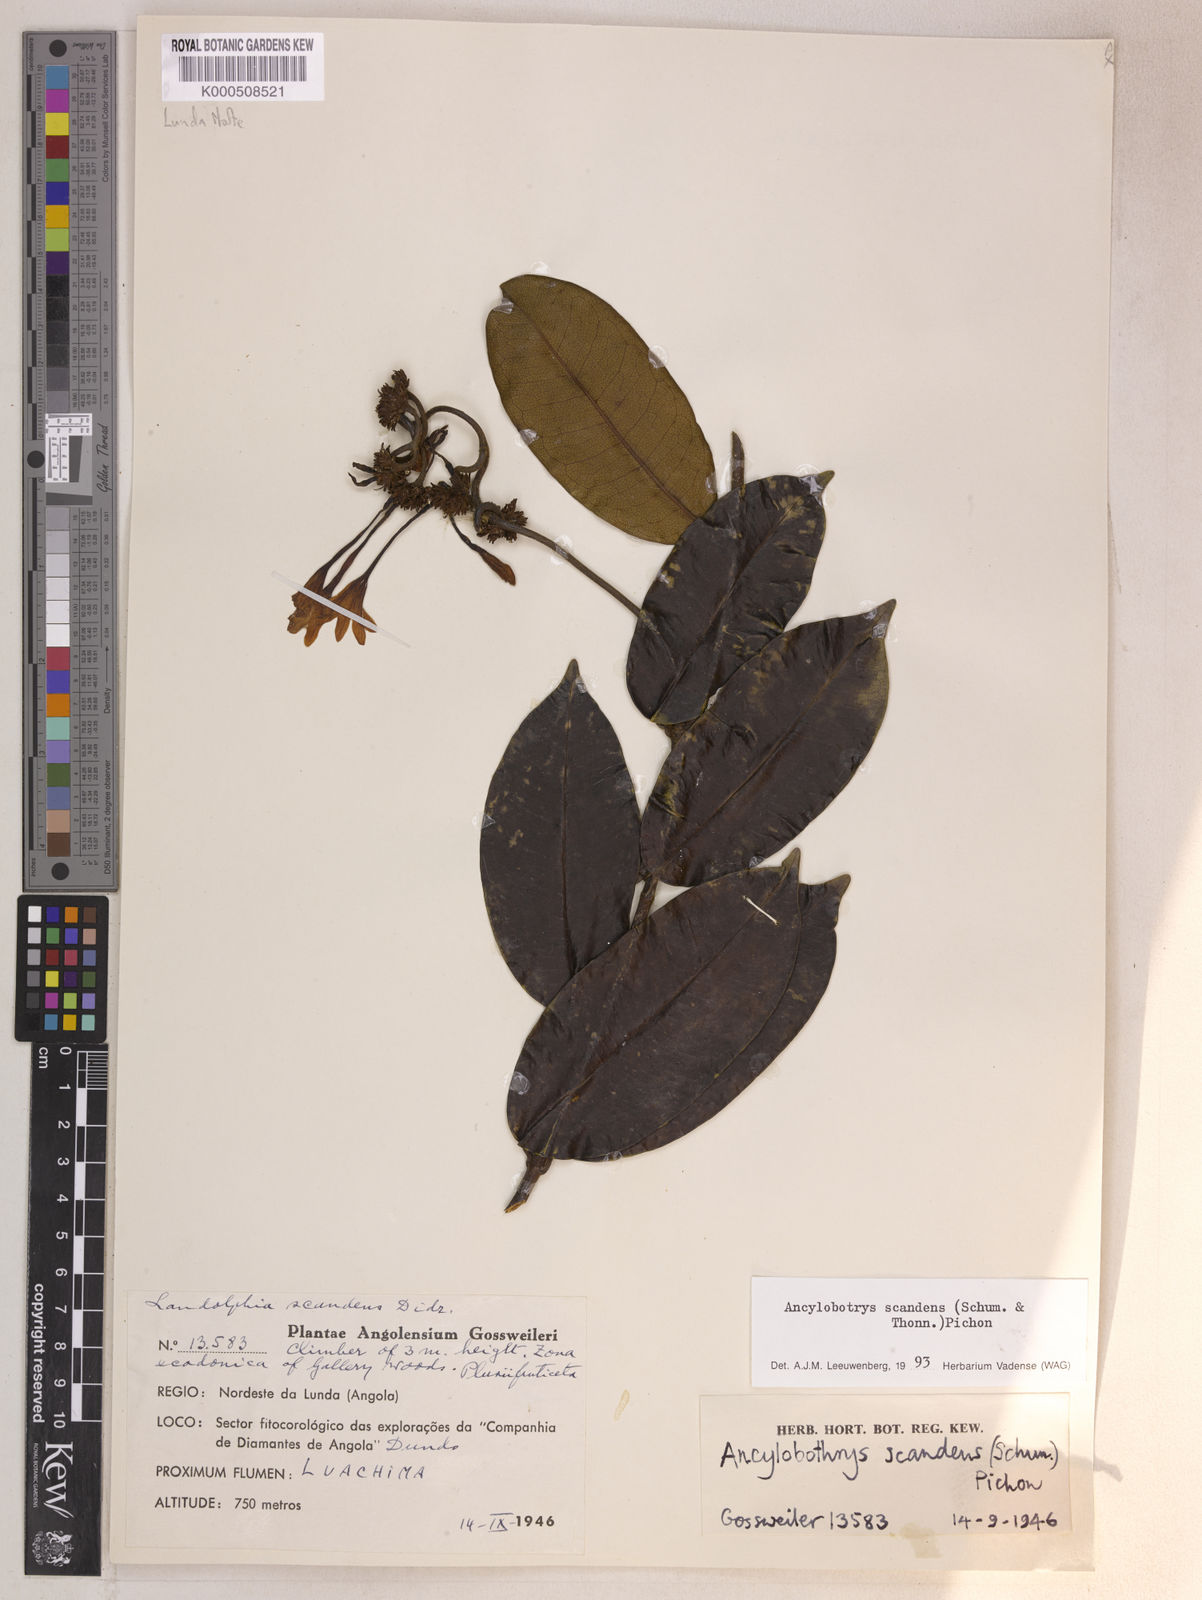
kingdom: Plantae
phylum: Tracheophyta
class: Magnoliopsida
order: Gentianales
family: Apocynaceae
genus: Ancylobothrys
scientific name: Ancylobothrys scandens
